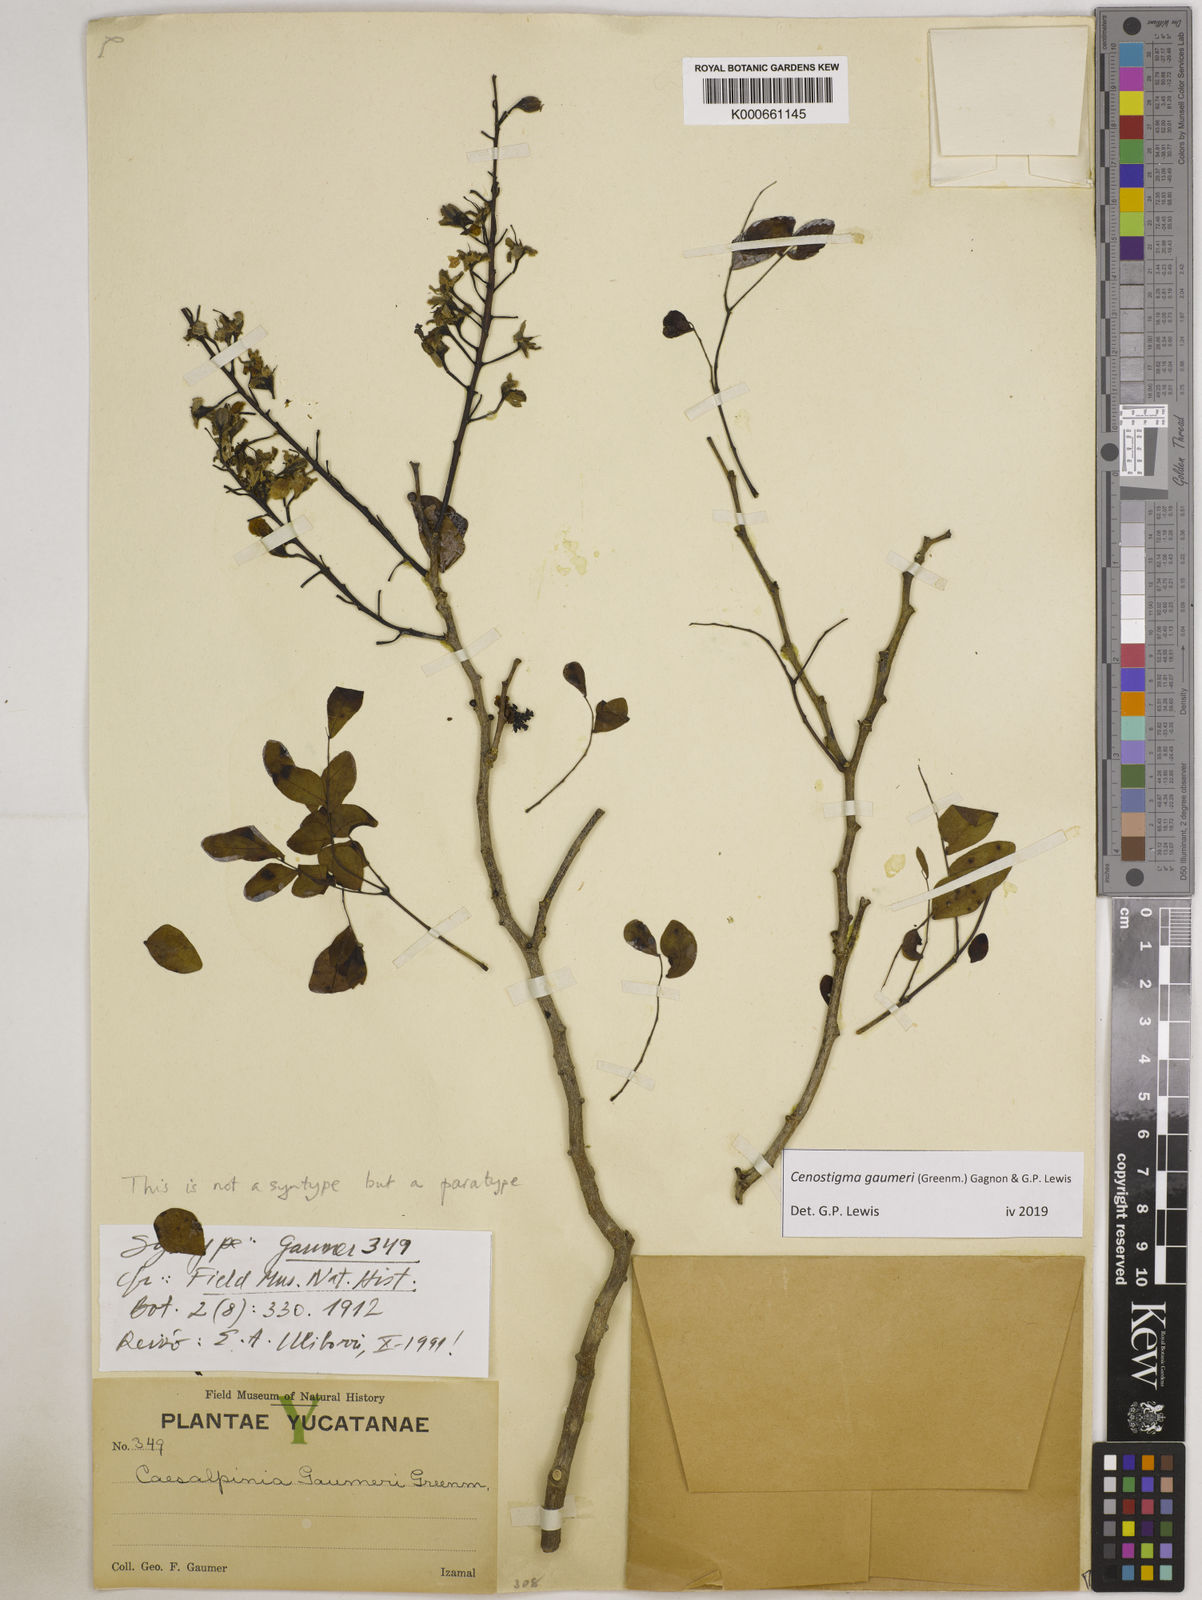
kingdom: Plantae
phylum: Tracheophyta
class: Magnoliopsida
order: Fabales
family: Fabaceae
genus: Cenostigma
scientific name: Cenostigma gaumeri
